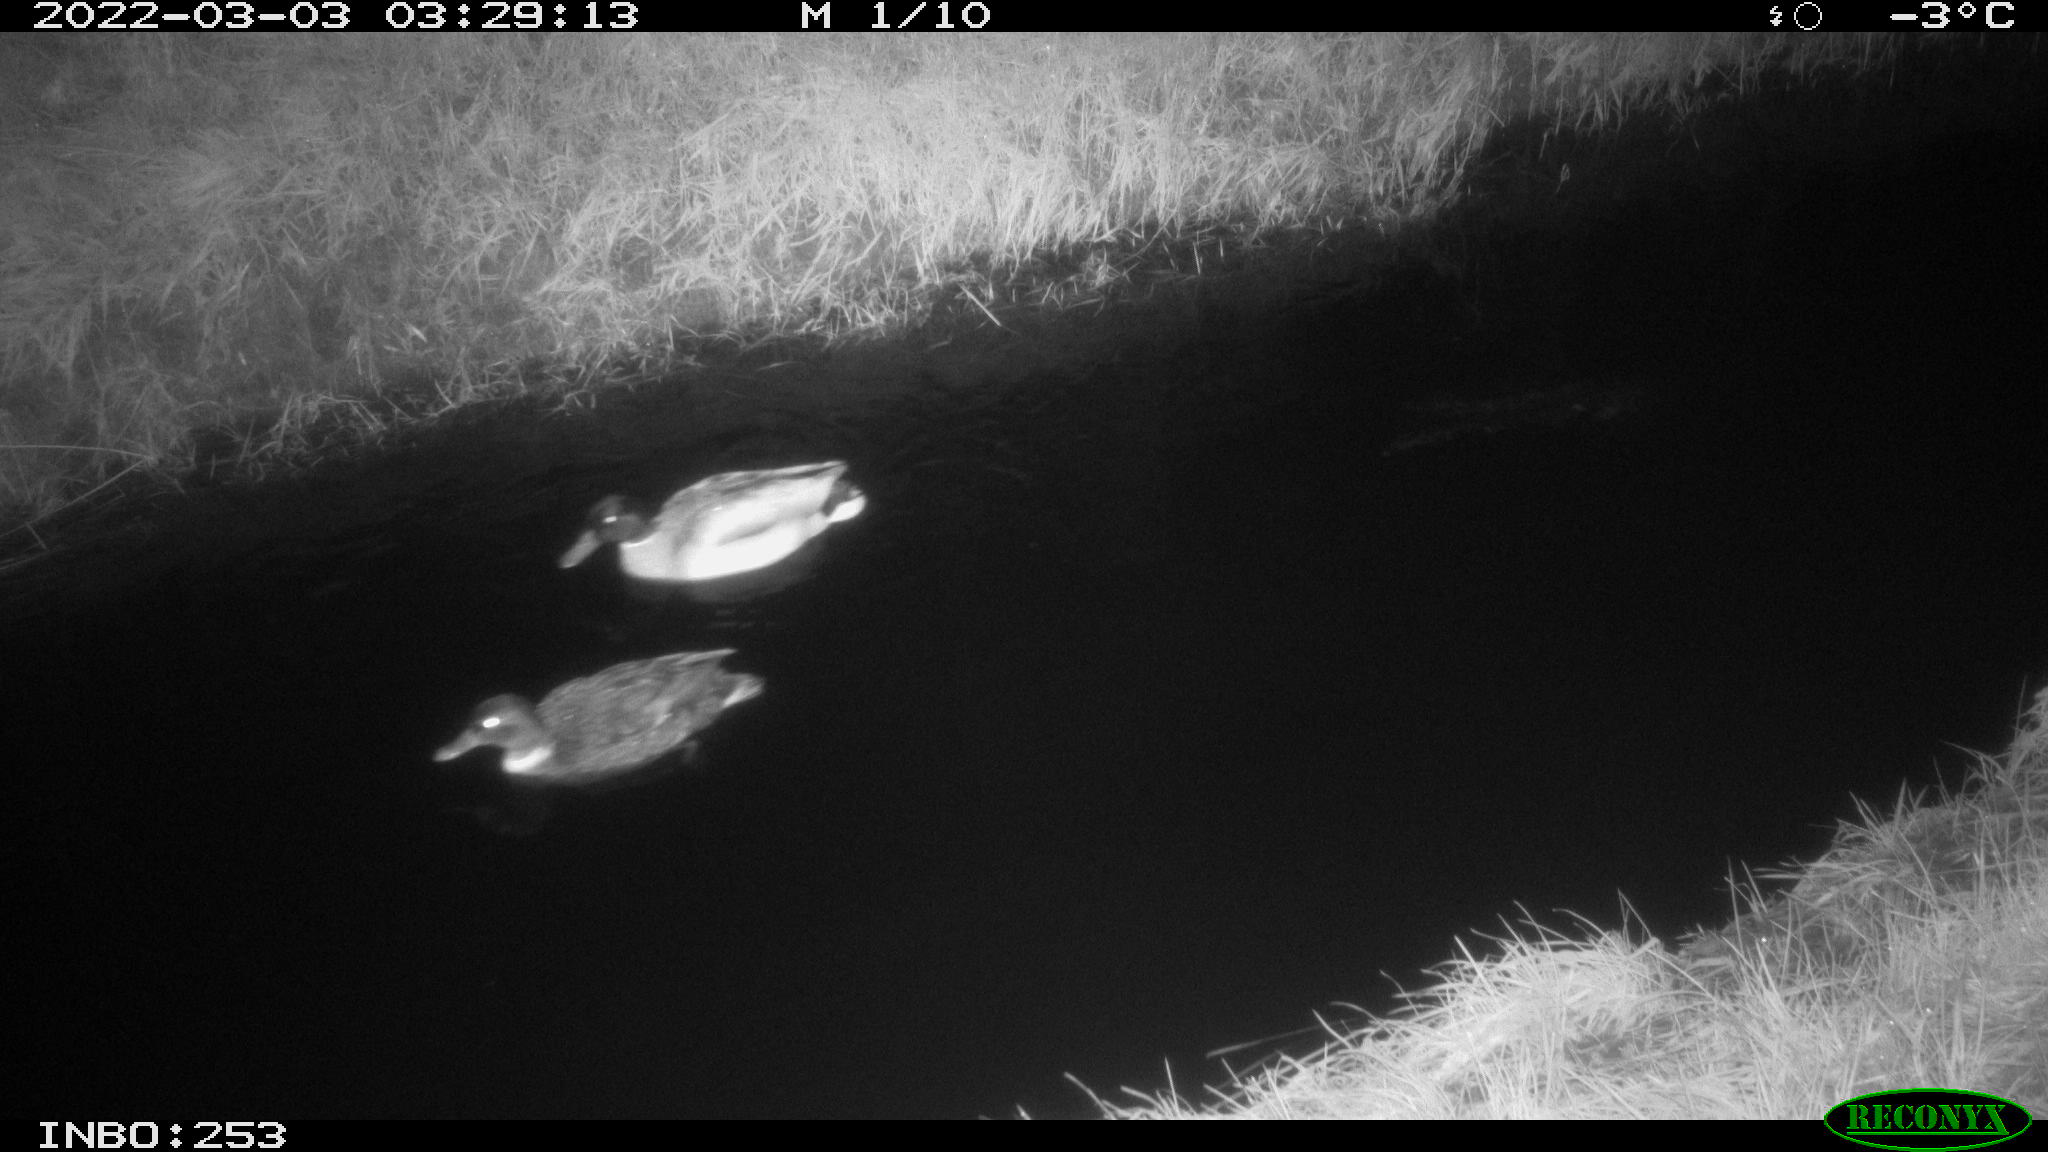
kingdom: Animalia
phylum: Chordata
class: Aves
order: Anseriformes
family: Anatidae
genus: Anas
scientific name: Anas platyrhynchos
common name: Mallard
